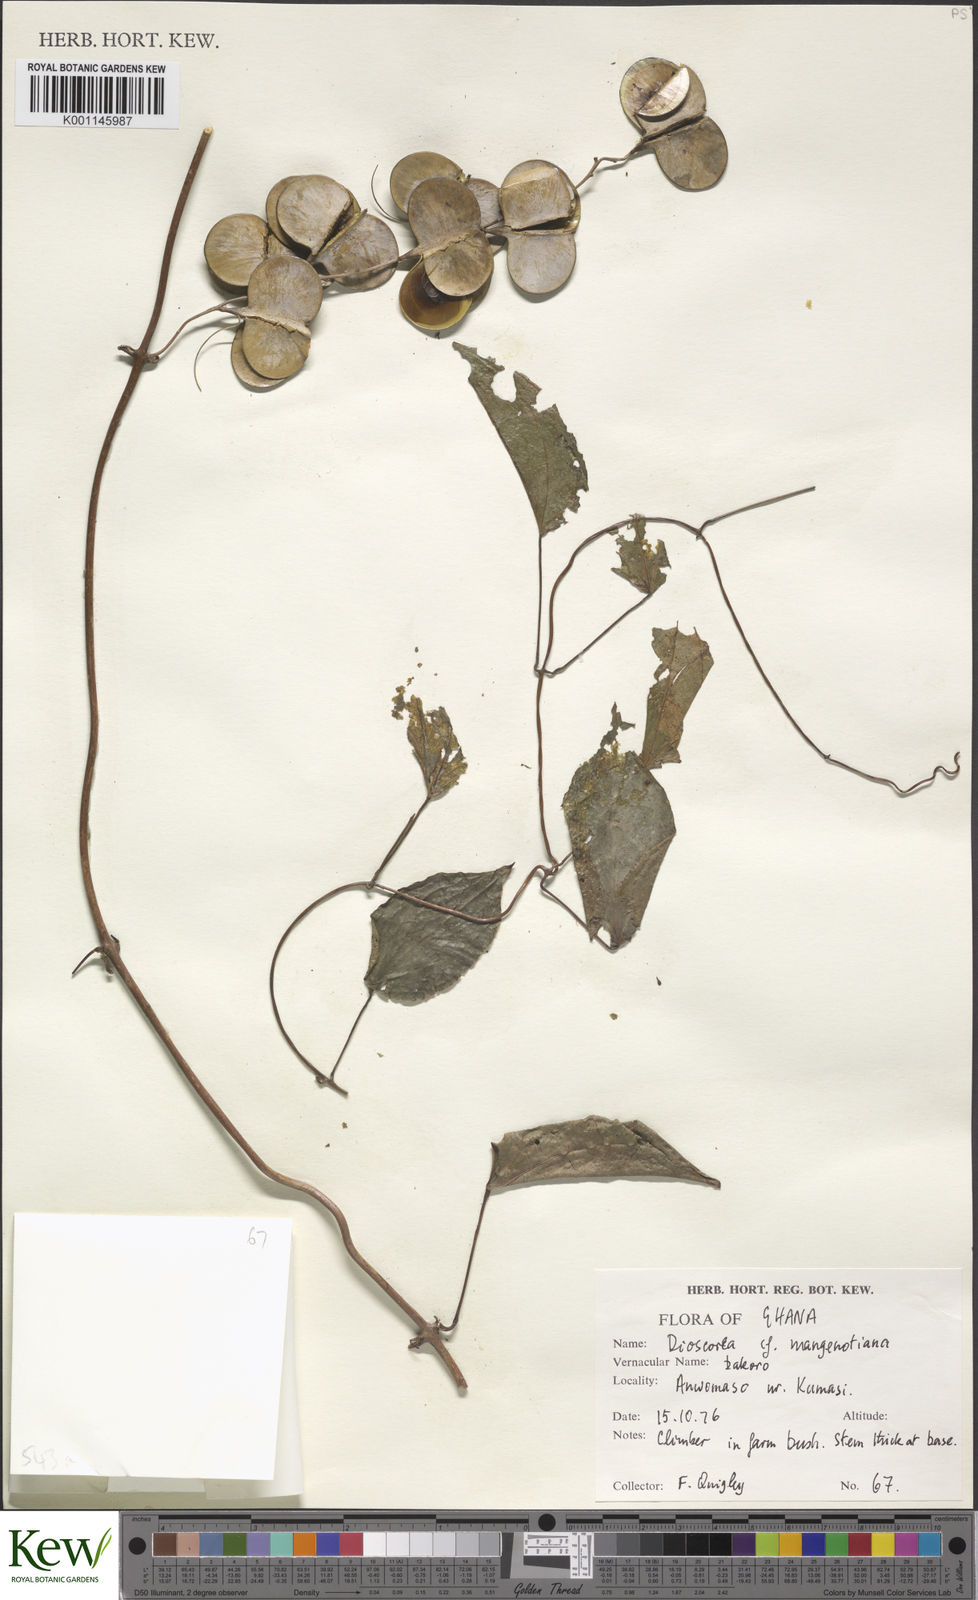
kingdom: Plantae
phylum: Tracheophyta
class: Liliopsida
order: Dioscoreales
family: Dioscoreaceae
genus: Dioscorea
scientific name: Dioscorea
